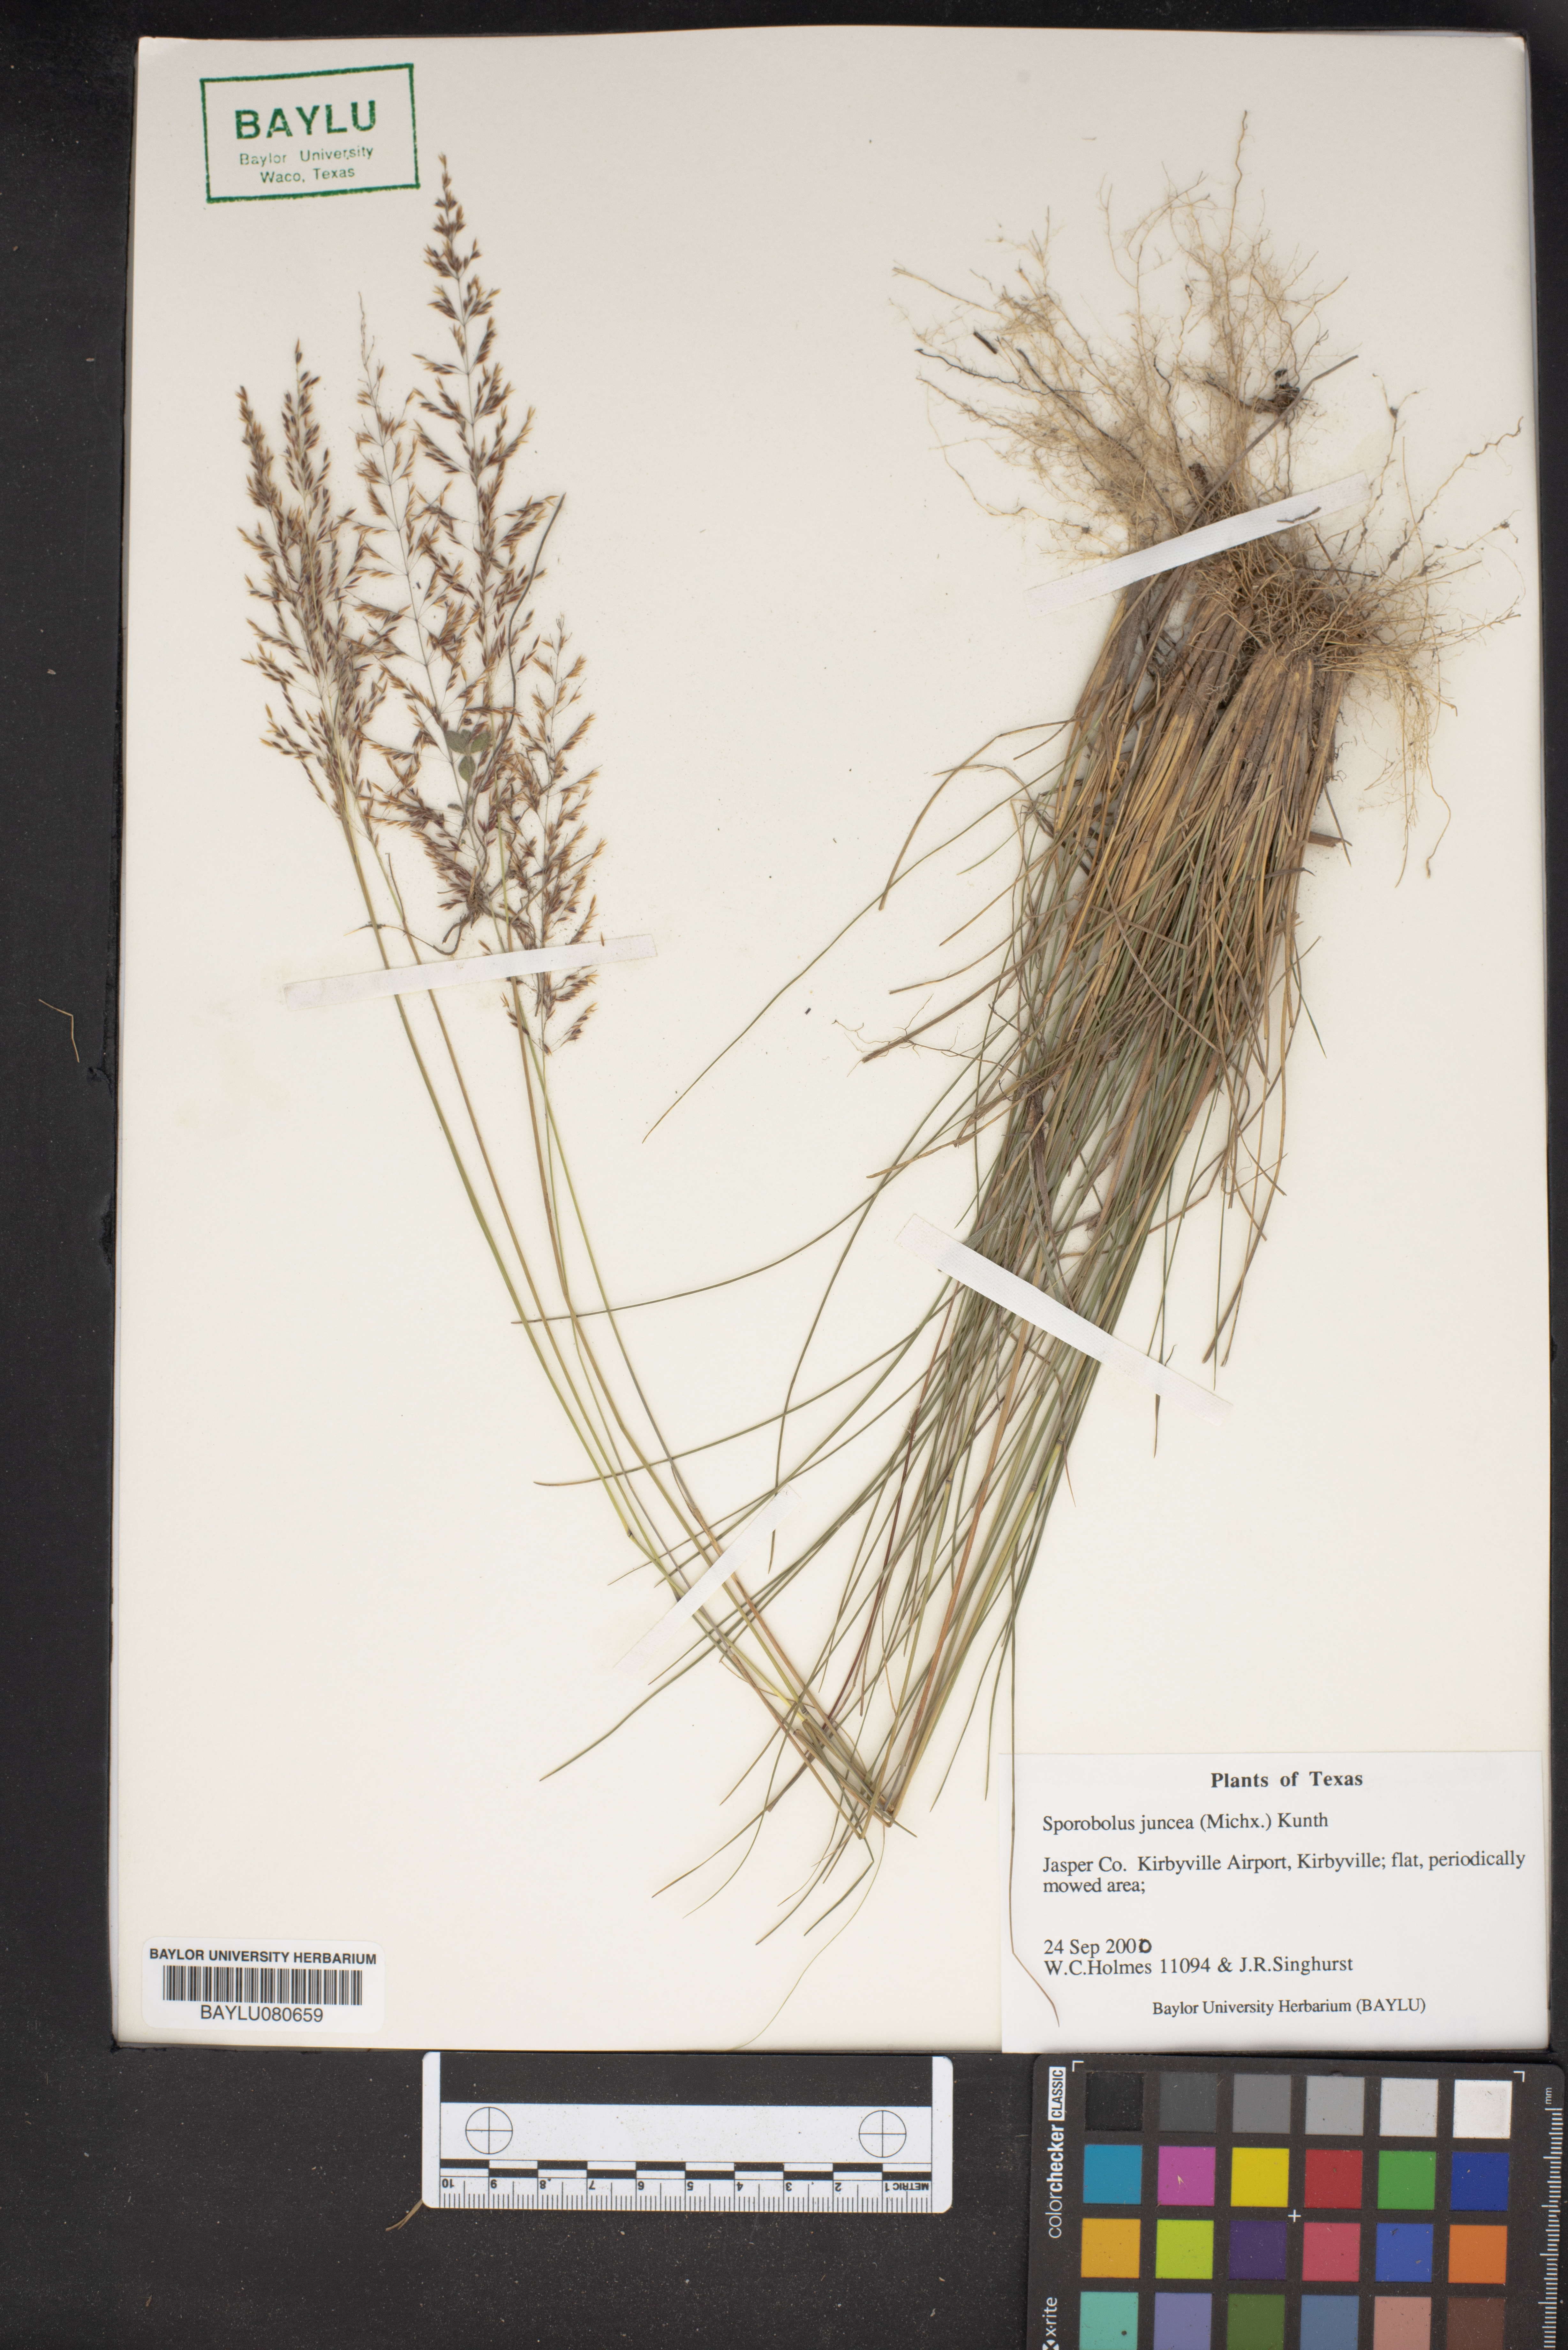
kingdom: Plantae
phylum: Tracheophyta
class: Liliopsida
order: Poales
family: Poaceae
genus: Sporobolus
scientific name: Sporobolus junceus
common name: Lizard grass
